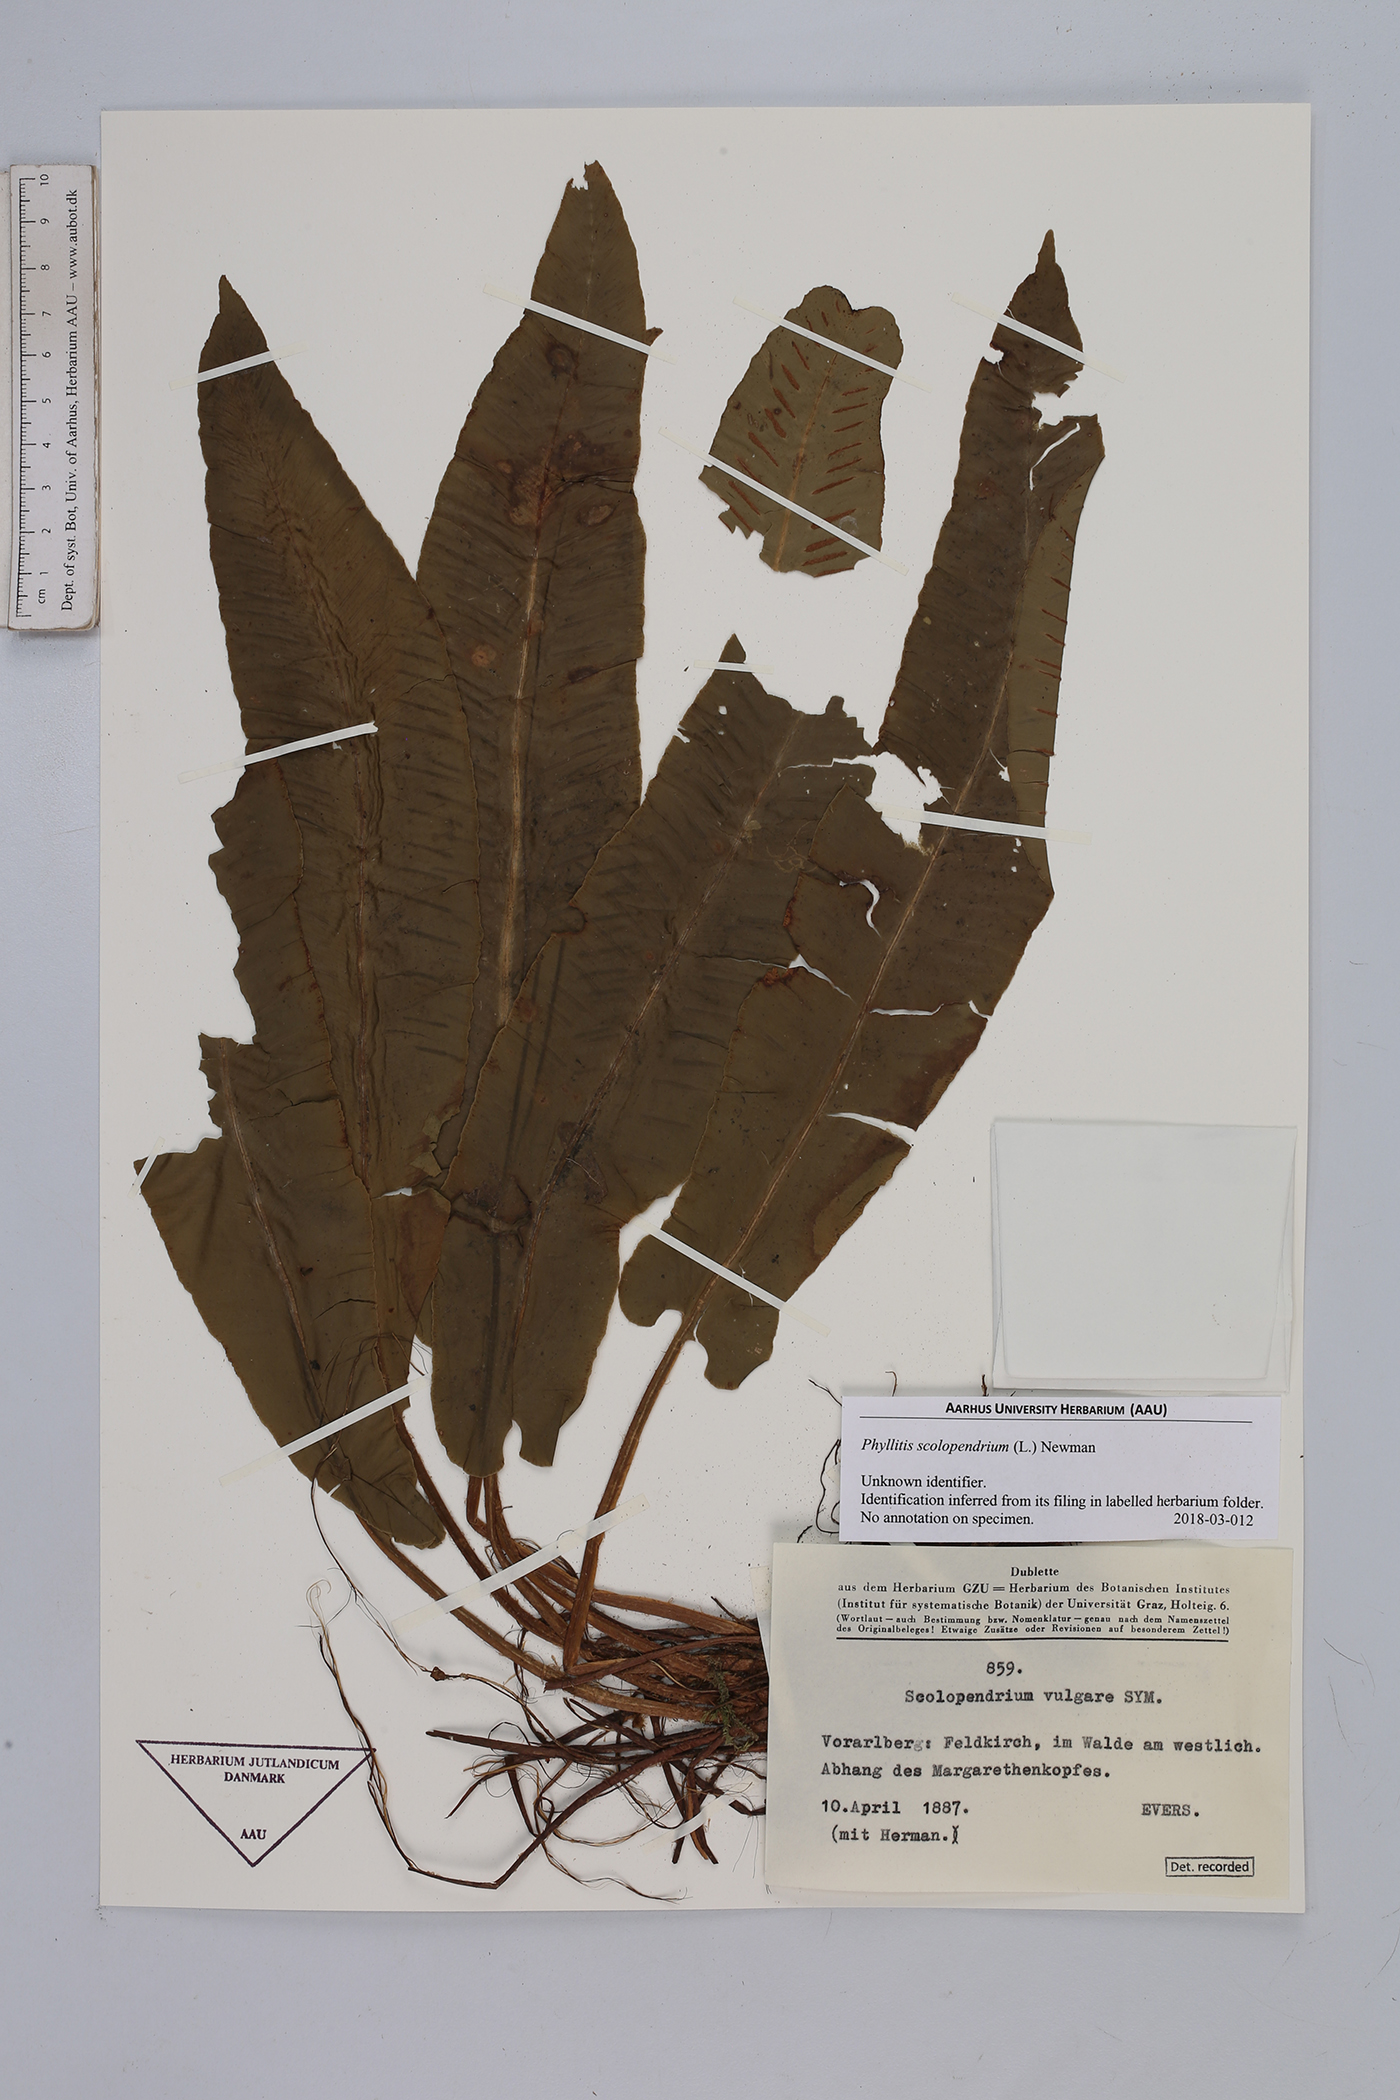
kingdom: Plantae
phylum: Tracheophyta
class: Polypodiopsida
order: Polypodiales
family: Aspleniaceae
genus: Asplenium
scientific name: Asplenium scolopendrium
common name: Hart's-tongue fern
